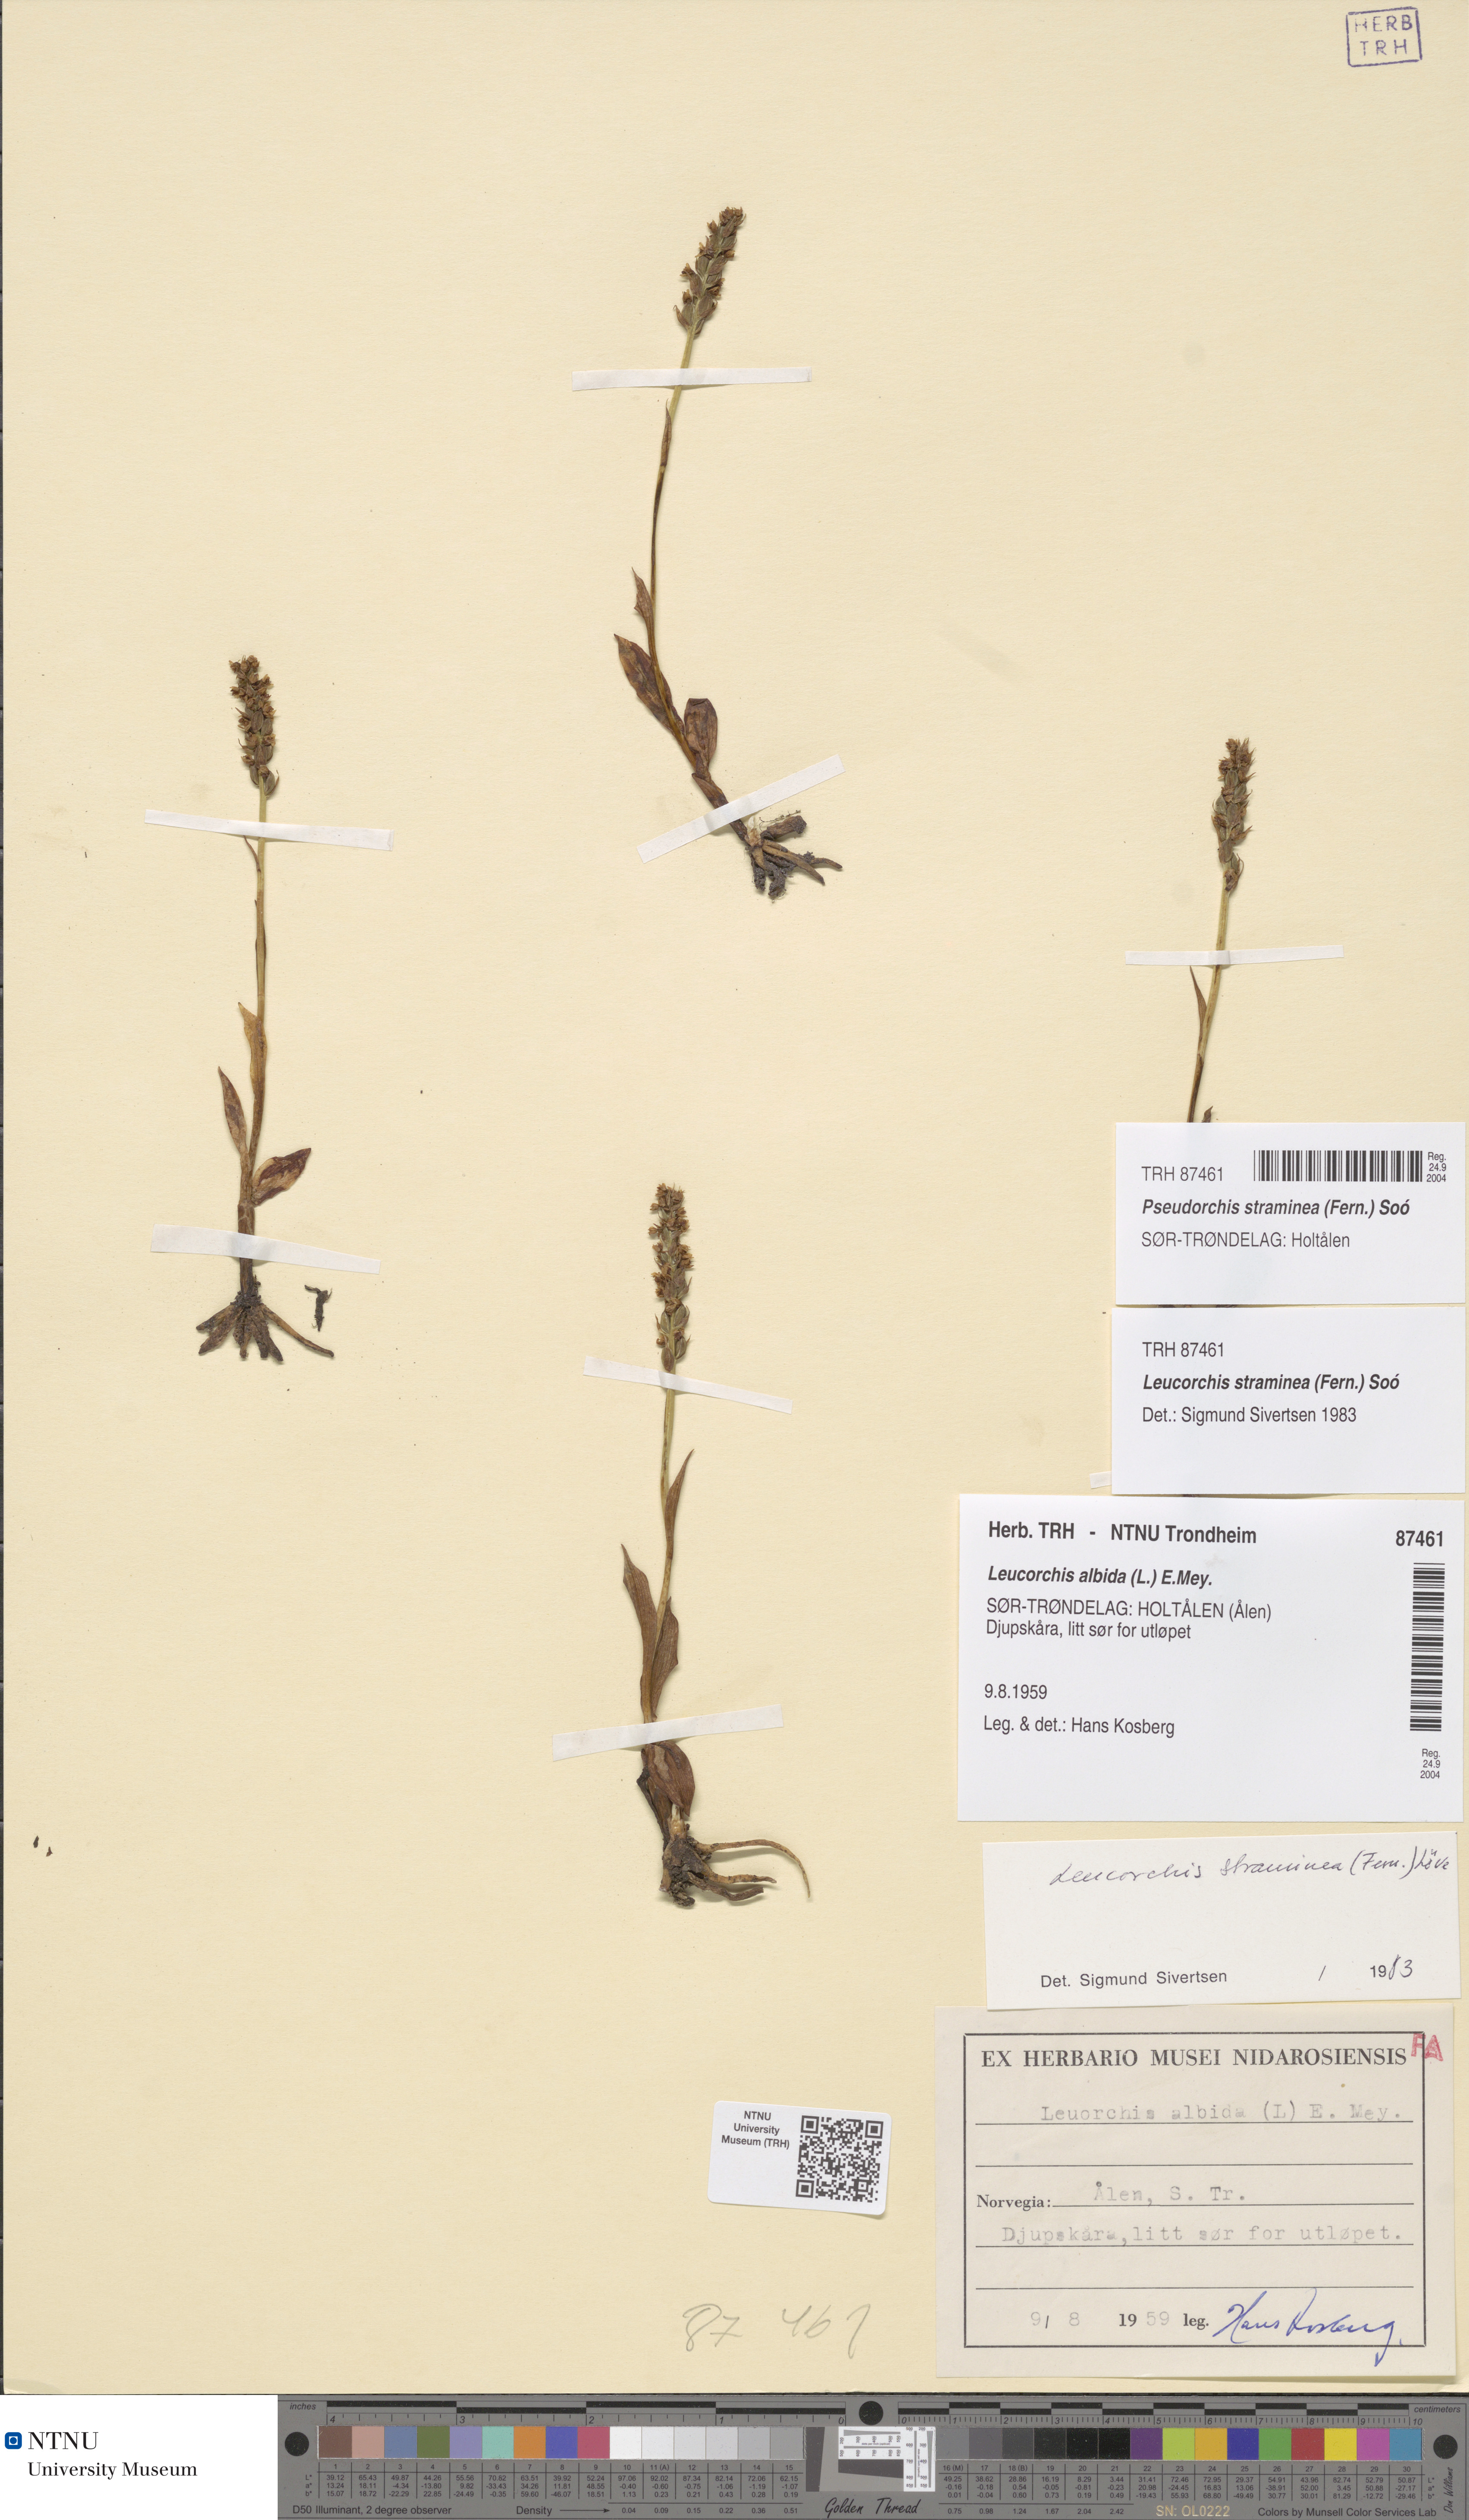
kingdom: Plantae
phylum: Tracheophyta
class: Liliopsida
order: Asparagales
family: Orchidaceae
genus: Pseudorchis
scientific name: Pseudorchis straminea
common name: Vanilla-scented bog orchid
